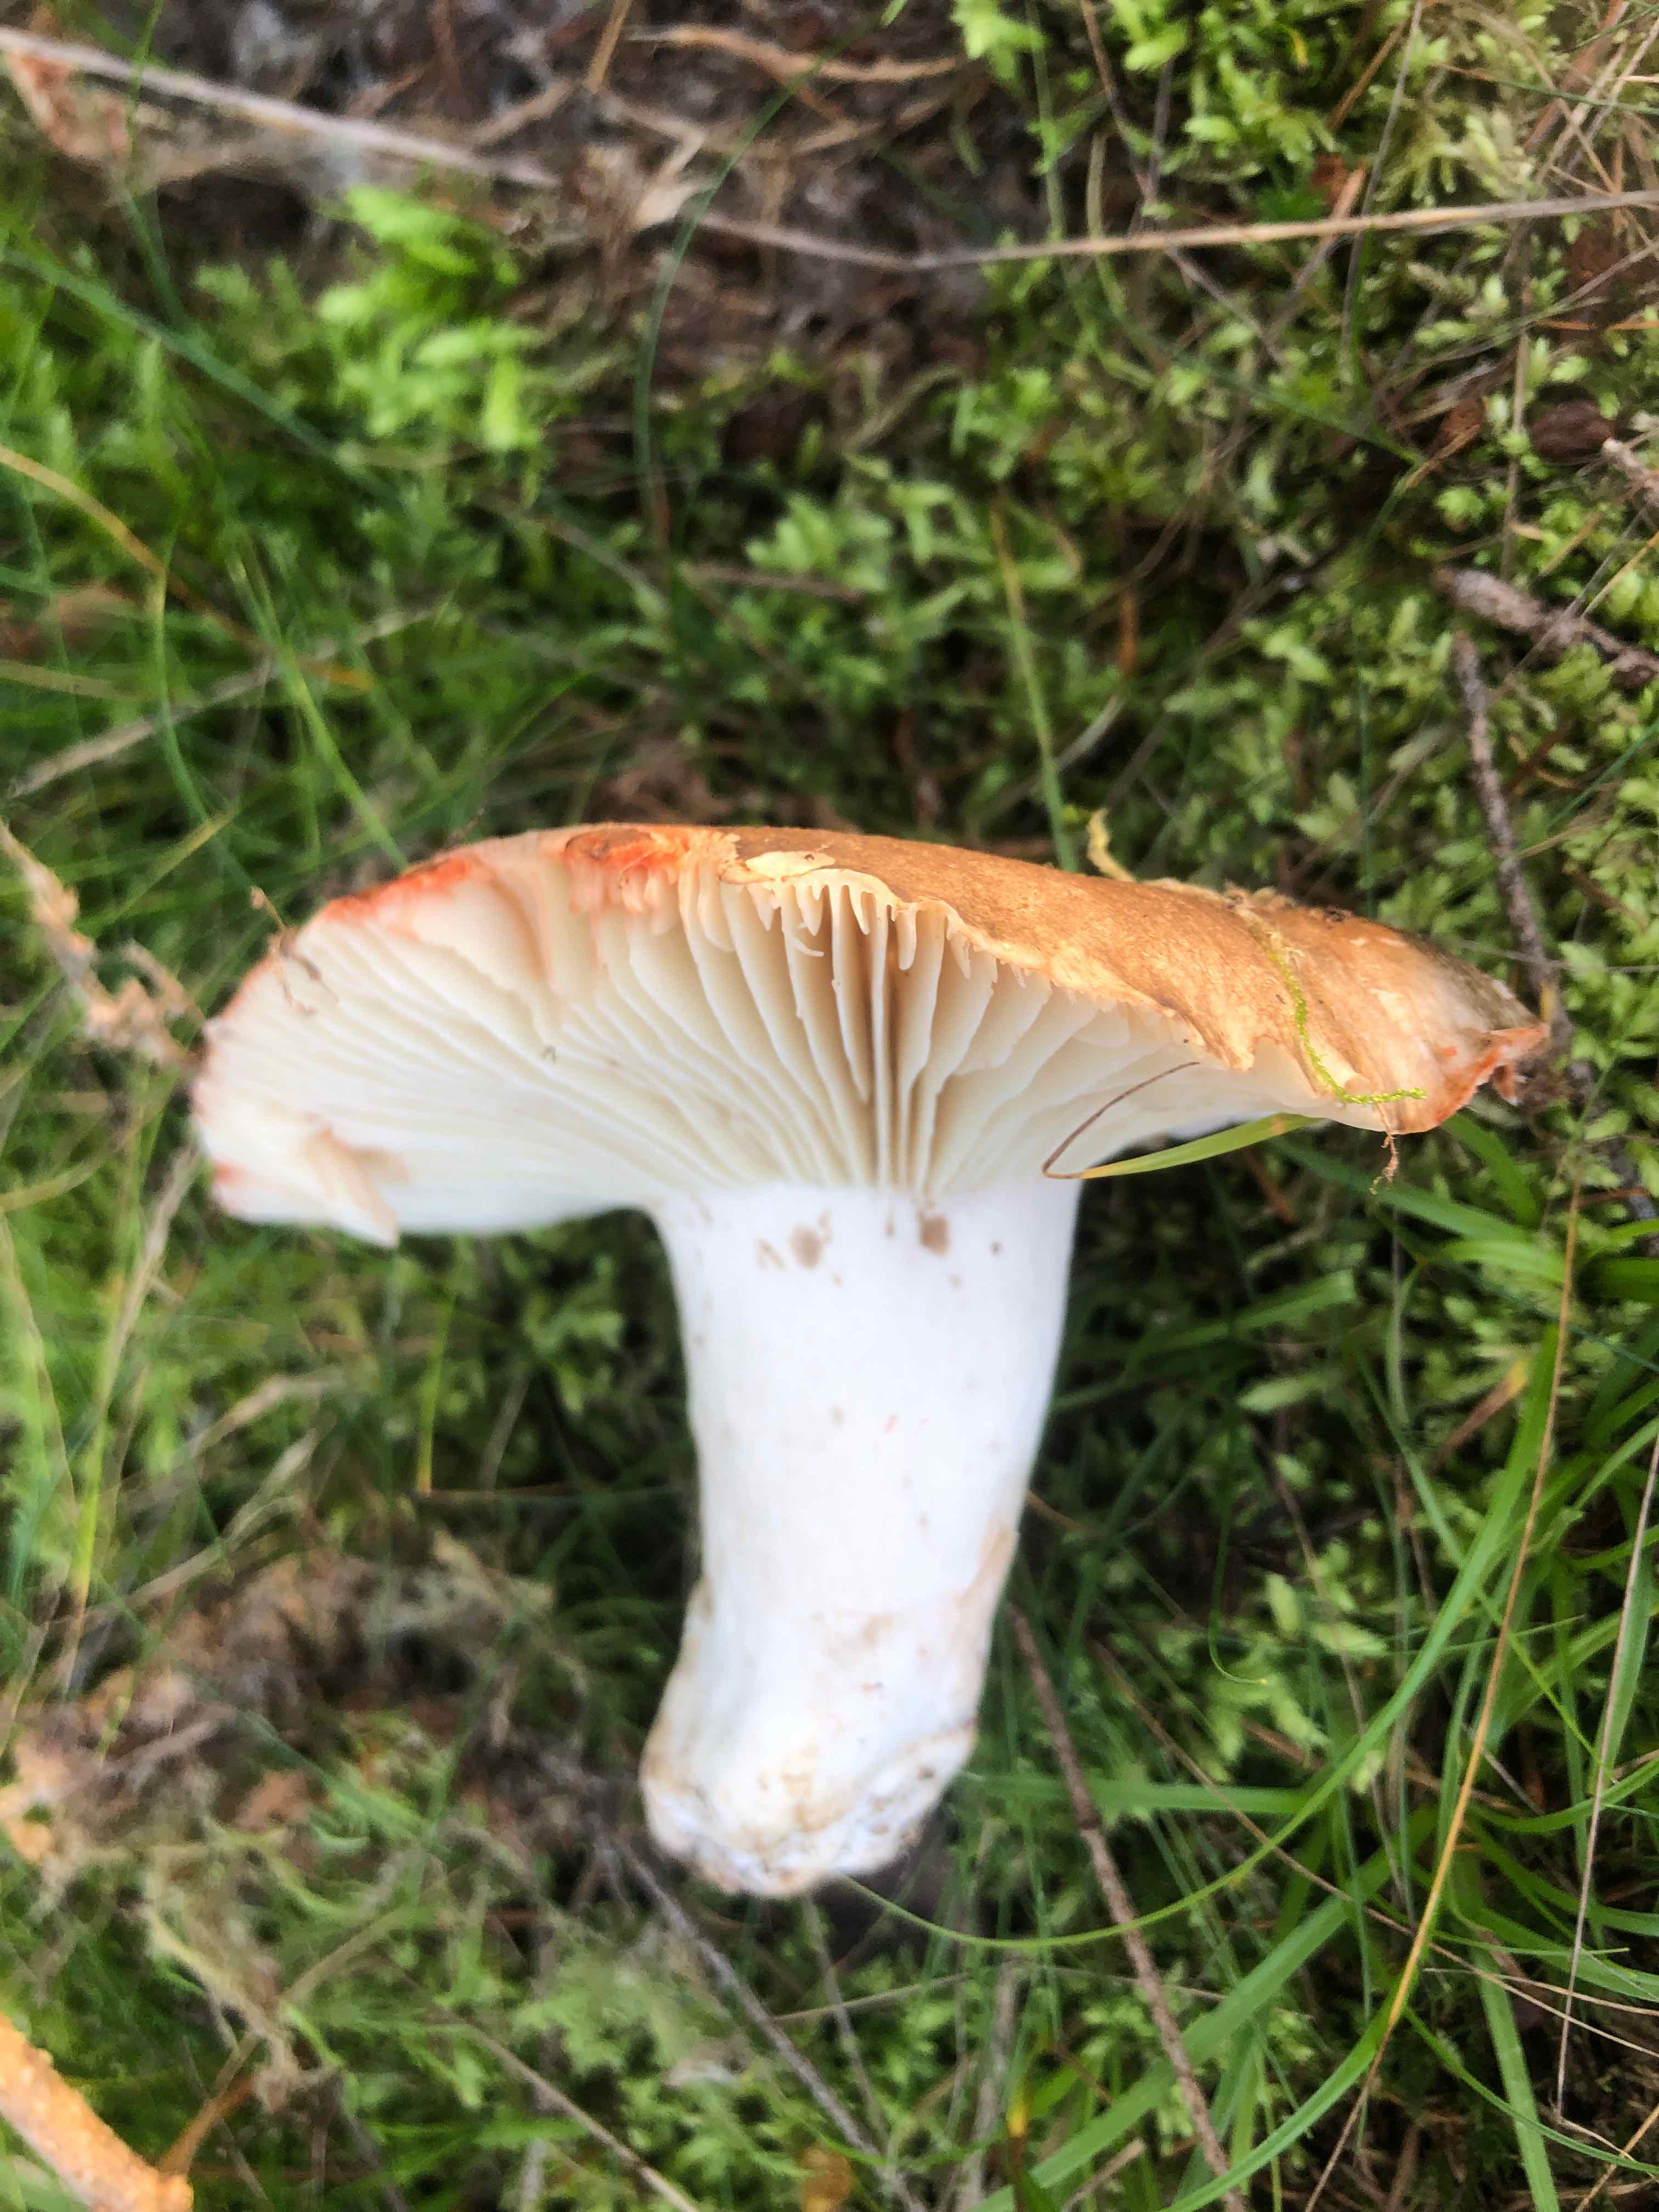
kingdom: Fungi
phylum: Basidiomycota
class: Agaricomycetes
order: Russulales
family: Russulaceae
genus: Russula
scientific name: Russula adusta
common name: sværtende skørhat
